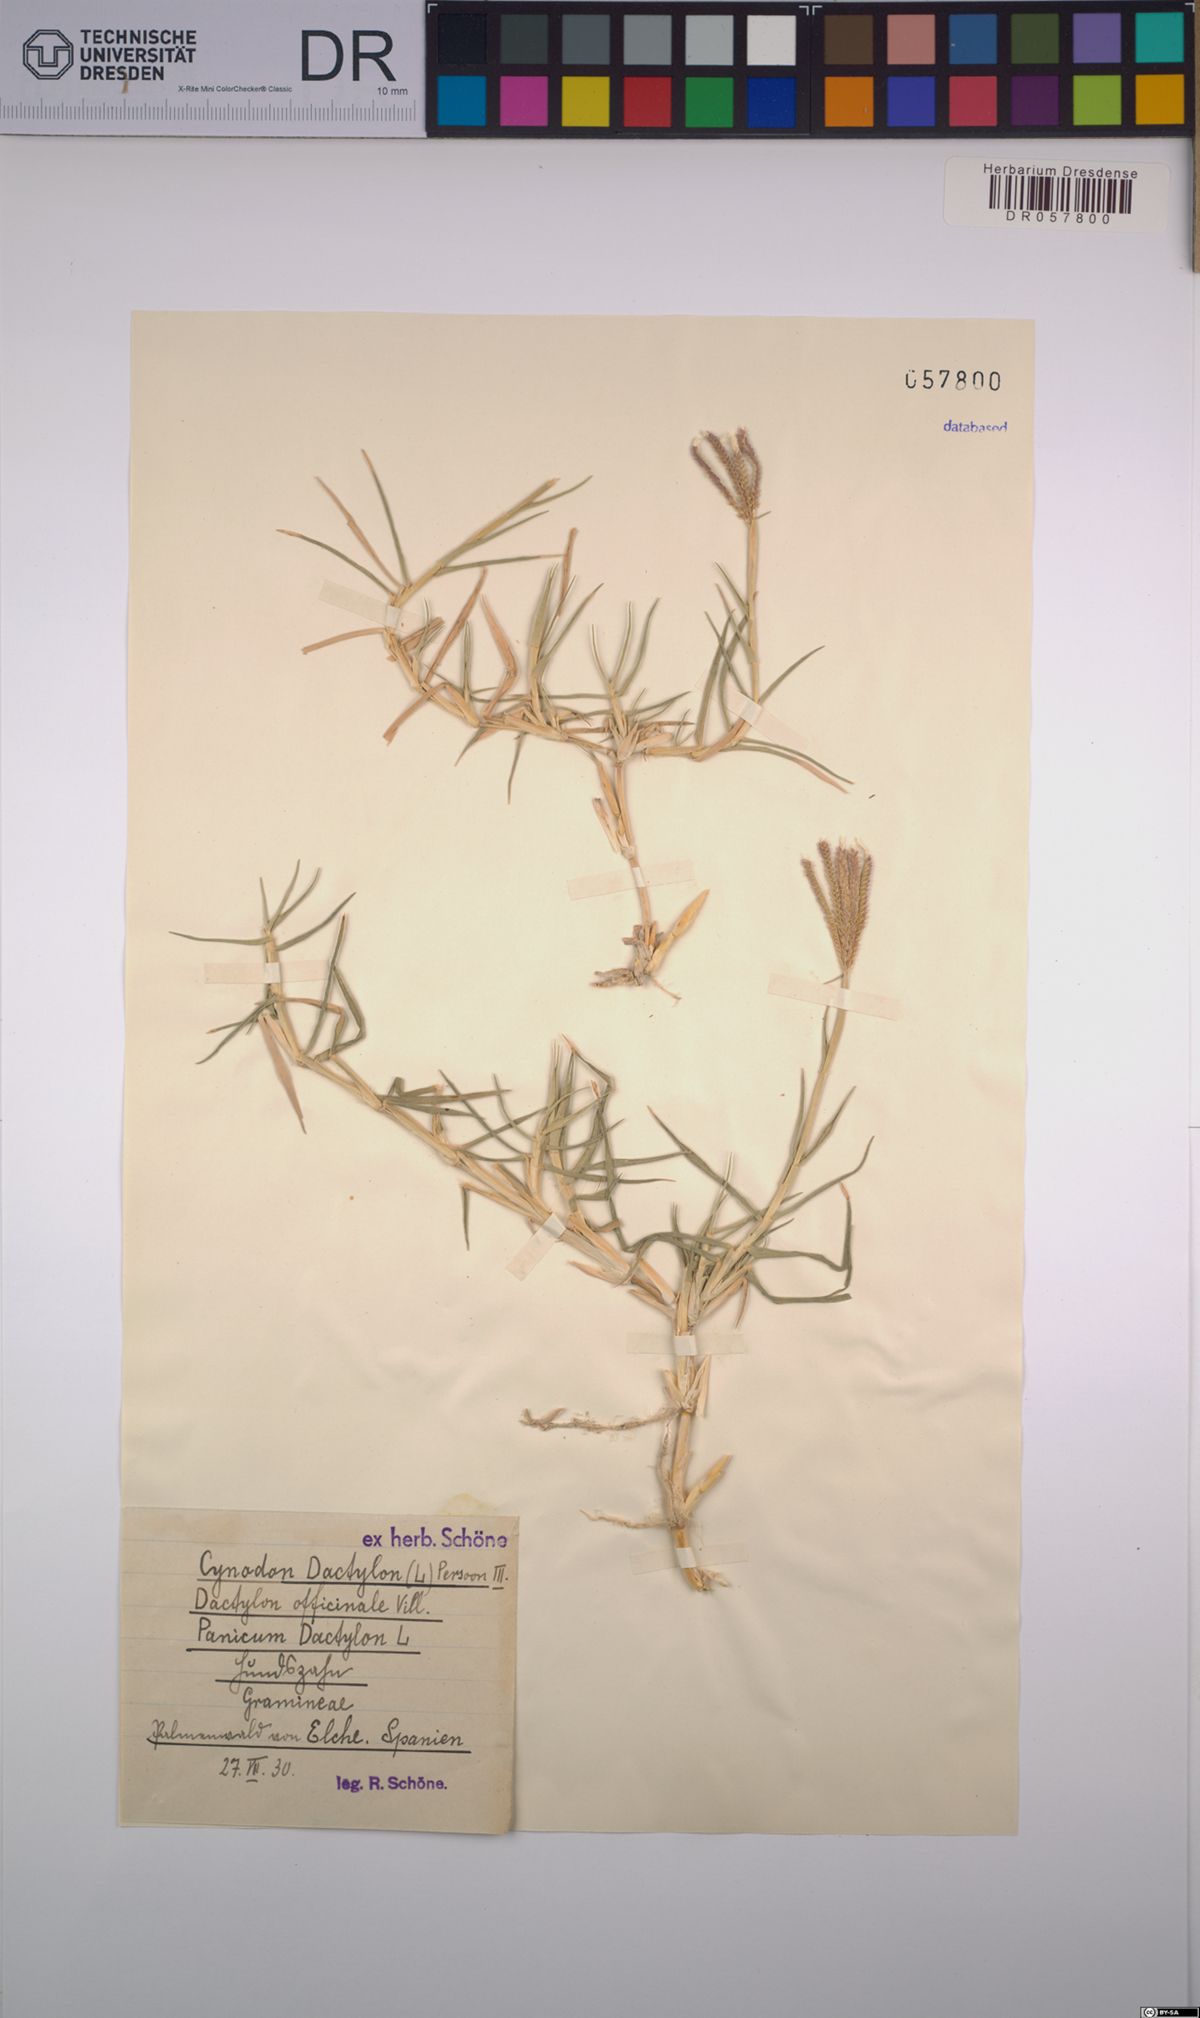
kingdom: Plantae
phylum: Tracheophyta
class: Liliopsida
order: Poales
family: Poaceae
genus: Cynodon
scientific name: Cynodon dactylon
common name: Bermuda grass
